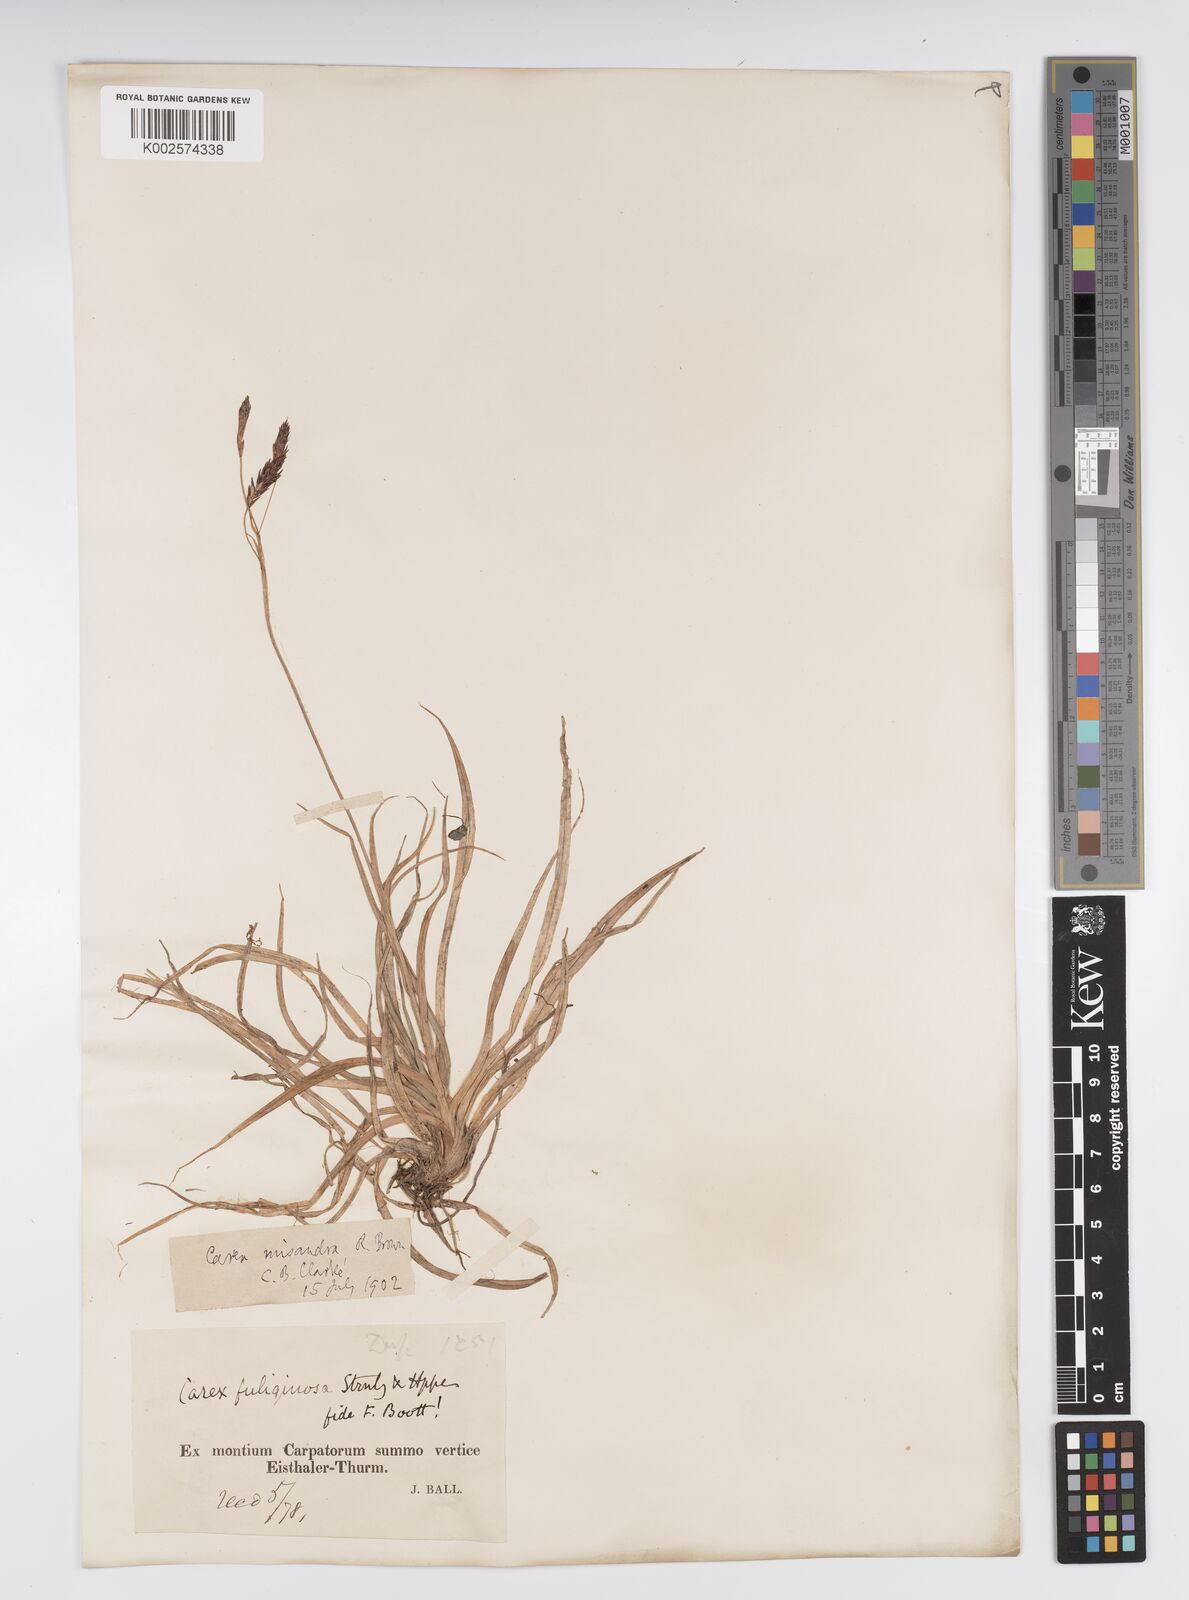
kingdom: Plantae
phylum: Tracheophyta
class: Liliopsida
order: Poales
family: Cyperaceae
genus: Carex
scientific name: Carex fuliginosa
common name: Few-flowered sedge
